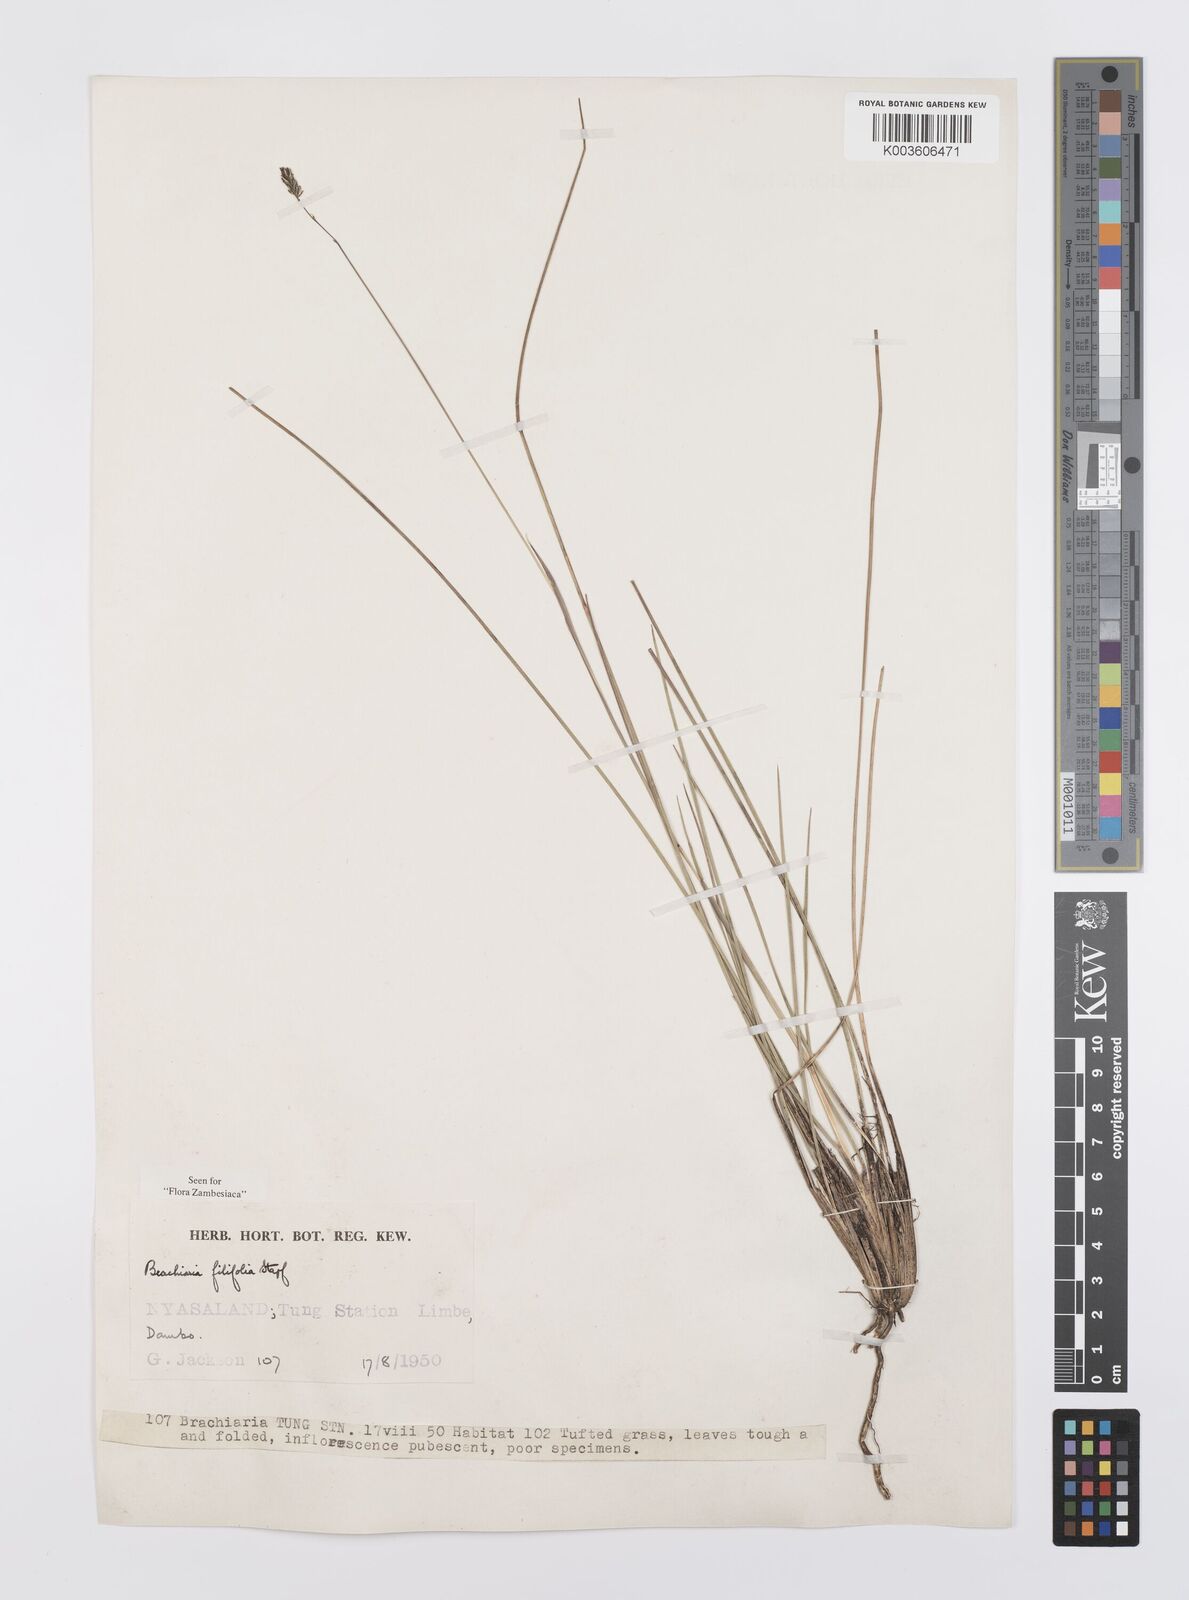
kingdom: Plantae
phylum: Tracheophyta
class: Liliopsida
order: Poales
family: Poaceae
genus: Urochloa
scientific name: Urochloa subulifolia
